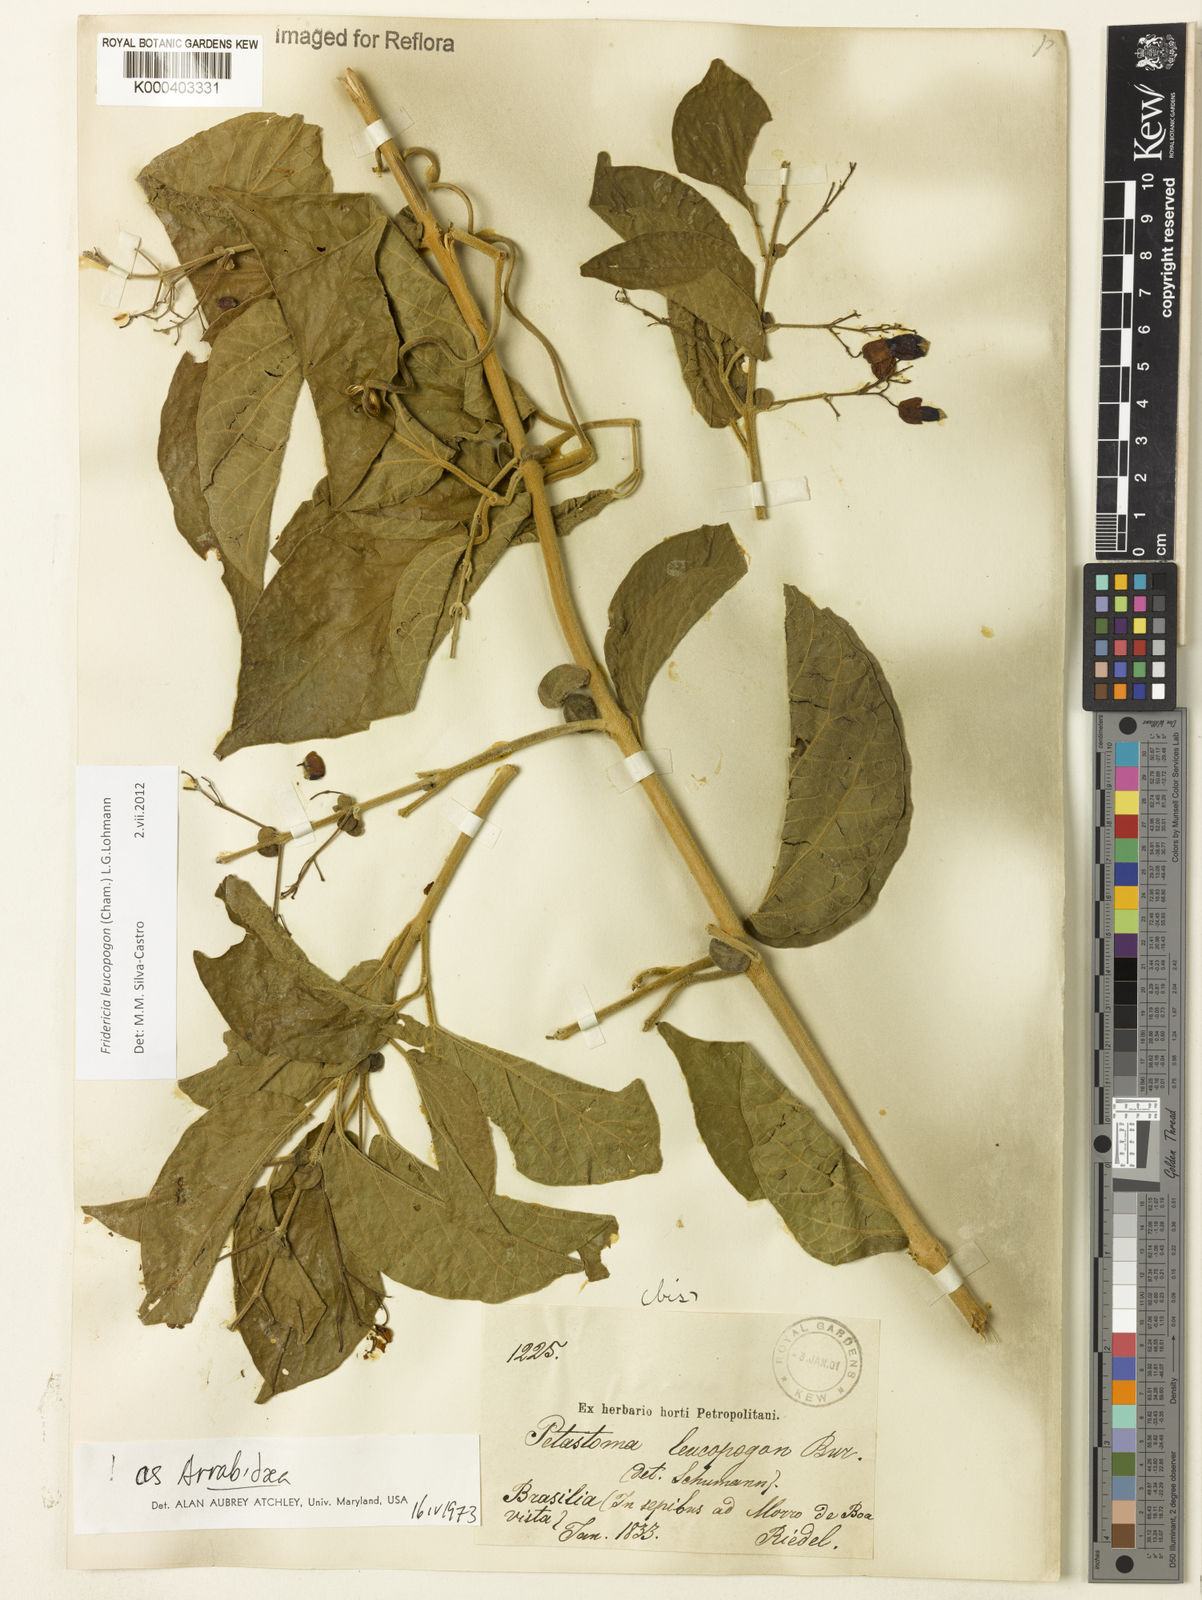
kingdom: Plantae
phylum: Tracheophyta
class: Magnoliopsida
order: Lamiales
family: Bignoniaceae
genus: Fridericia
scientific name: Fridericia leucopogon
